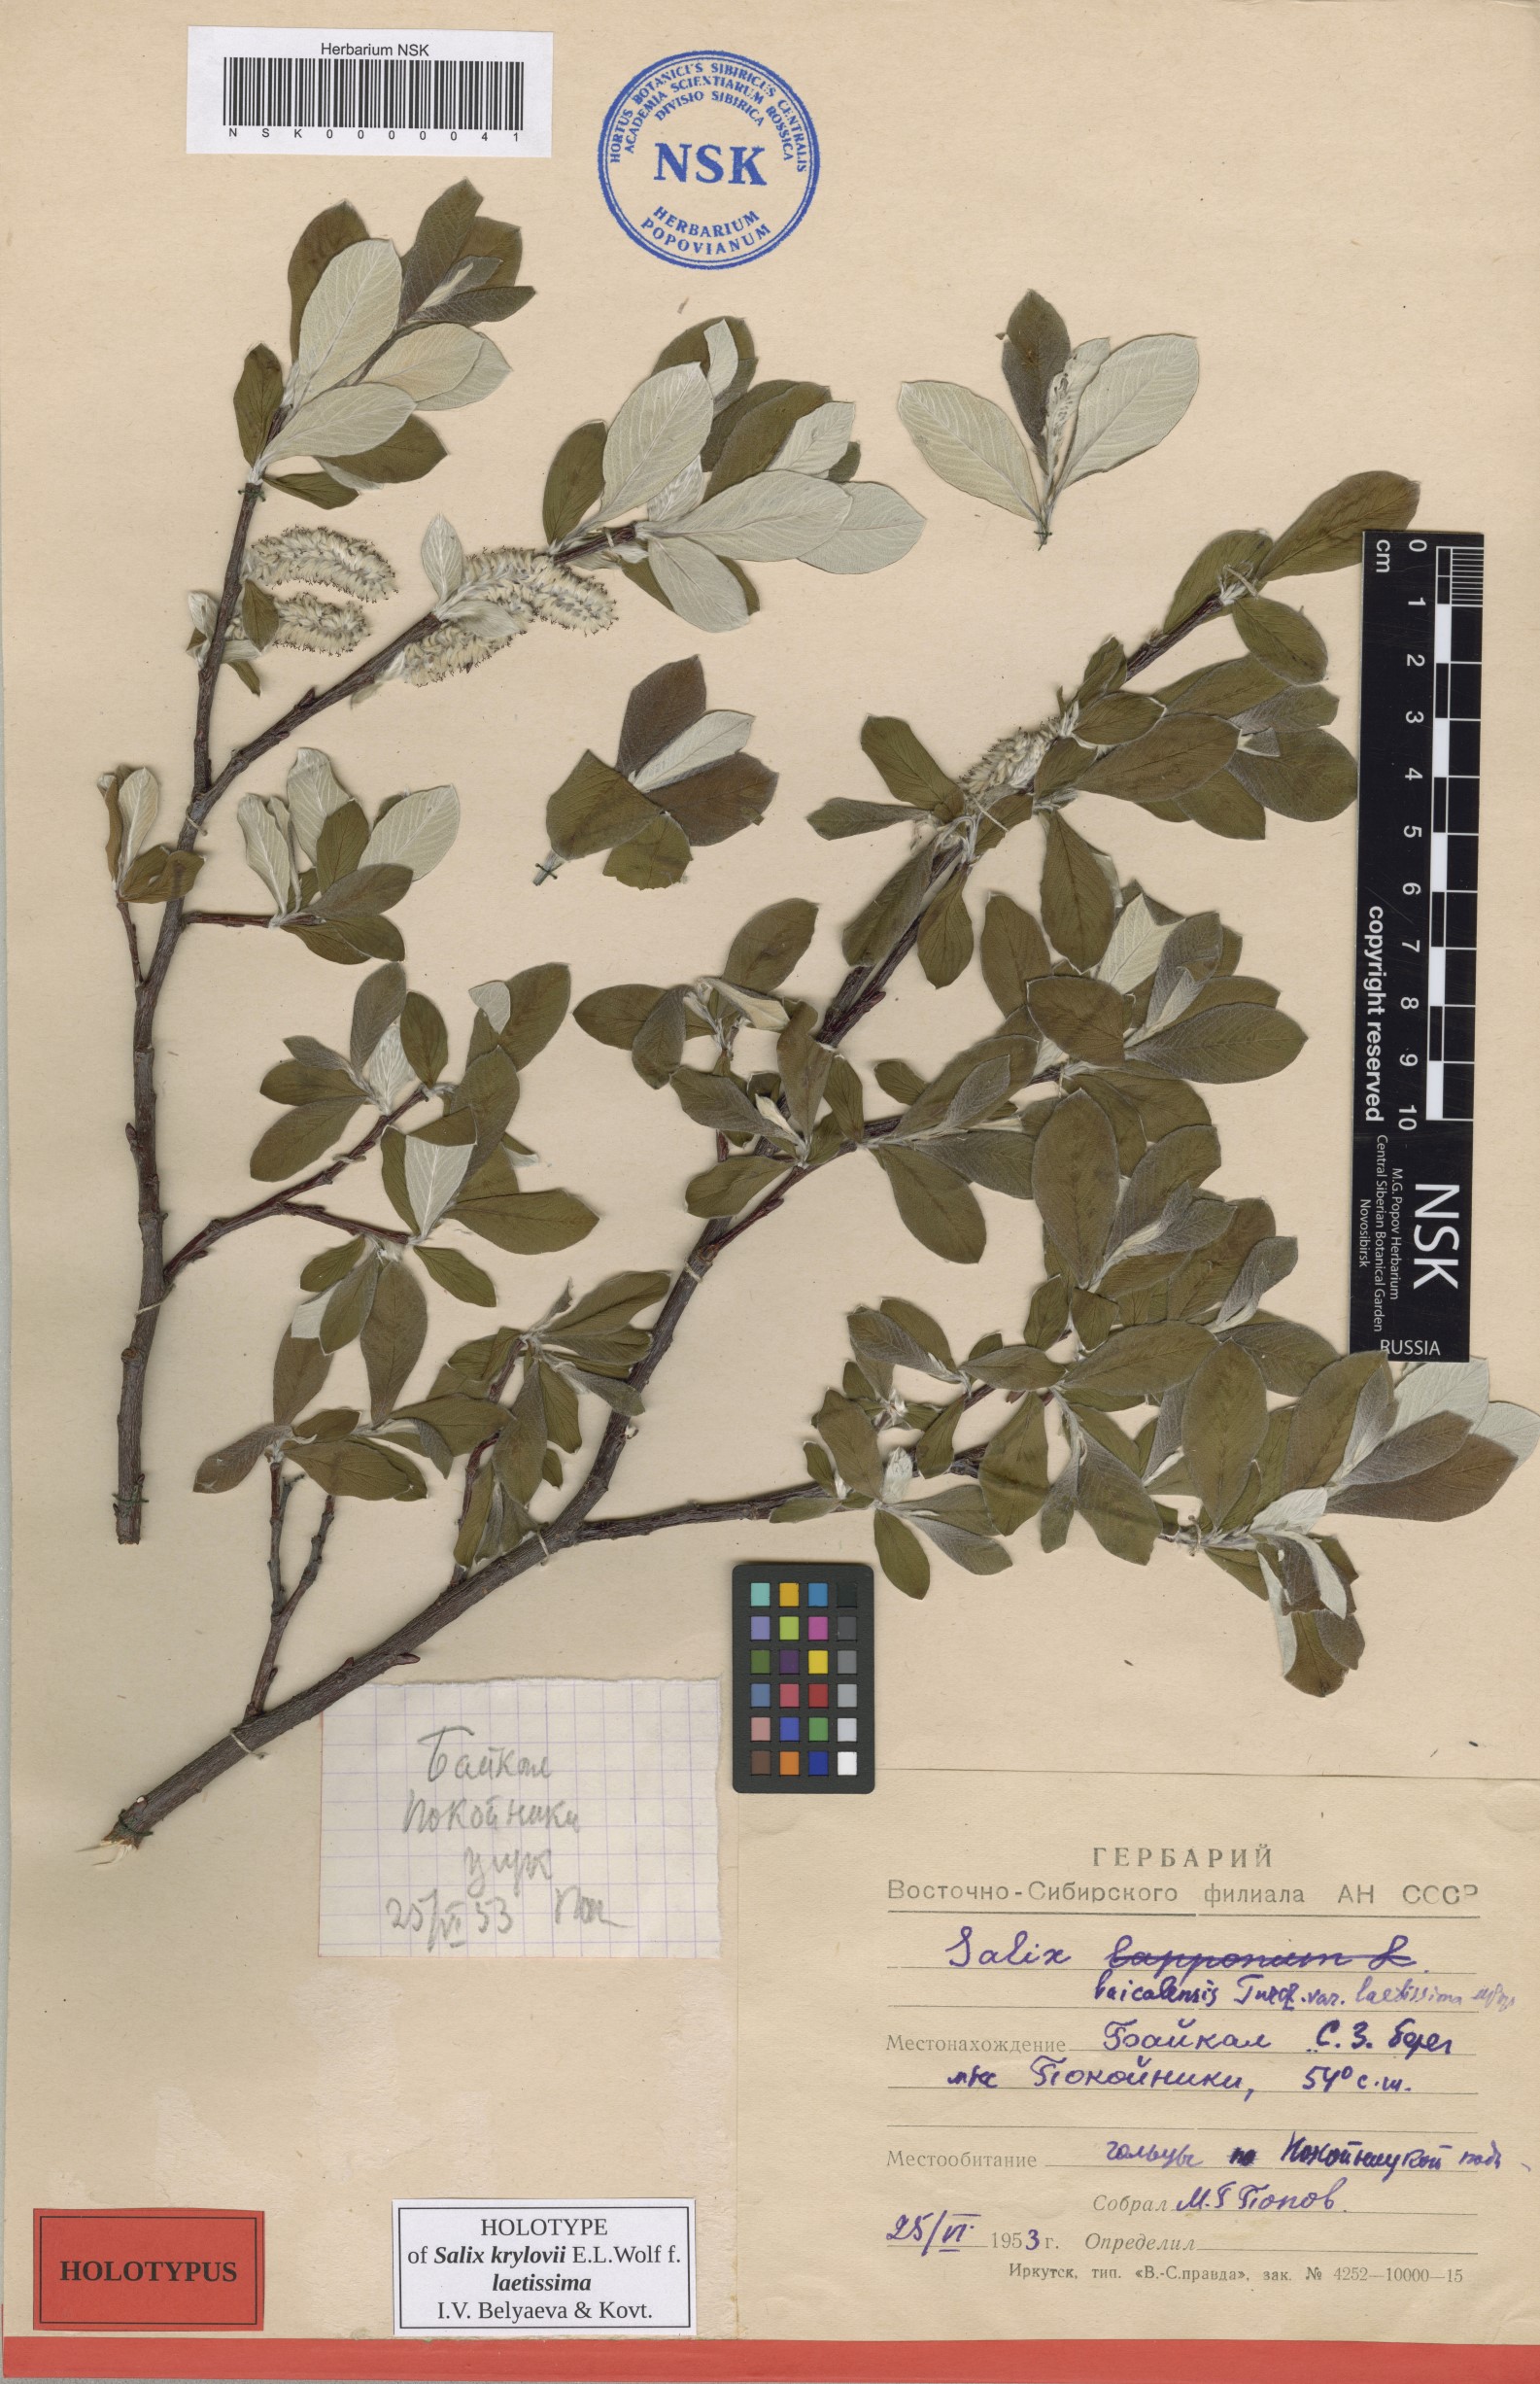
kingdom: Plantae
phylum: Tracheophyta
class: Magnoliopsida
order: Malpighiales
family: Salicaceae
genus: Salix
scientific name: Salix krylovii
